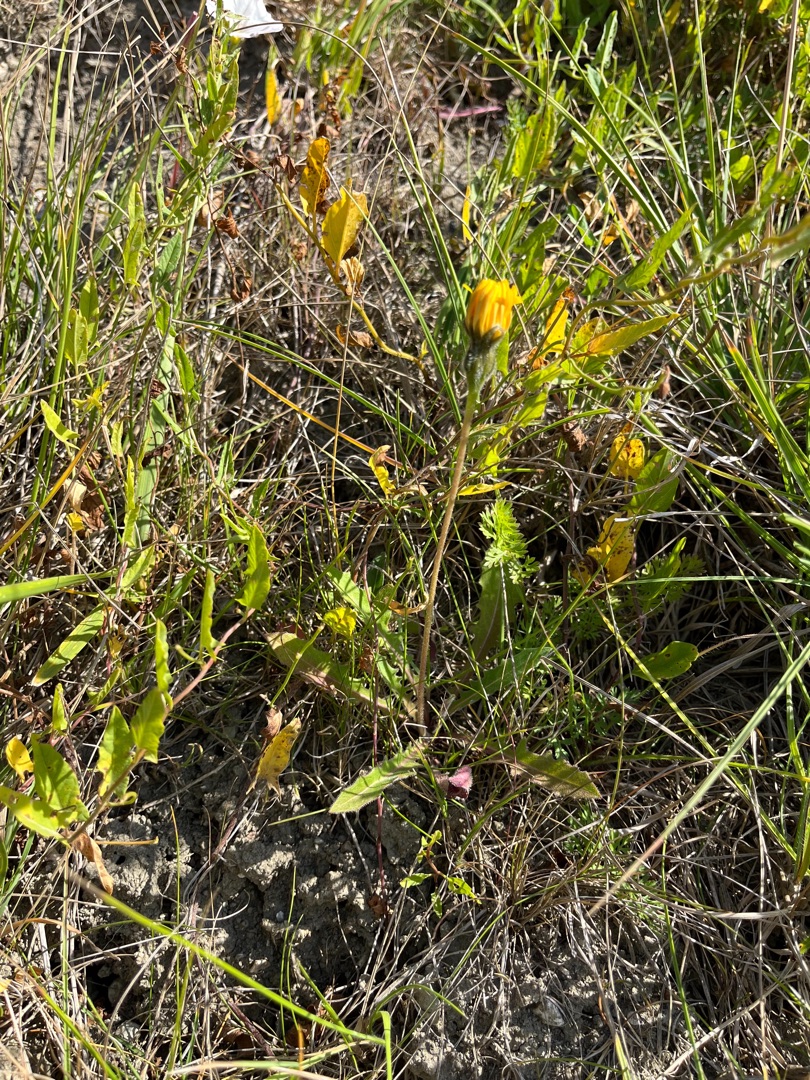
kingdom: Plantae
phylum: Tracheophyta
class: Magnoliopsida
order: Asterales
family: Asteraceae
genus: Leontodon
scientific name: Leontodon hispidus
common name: Stivhåret borst
